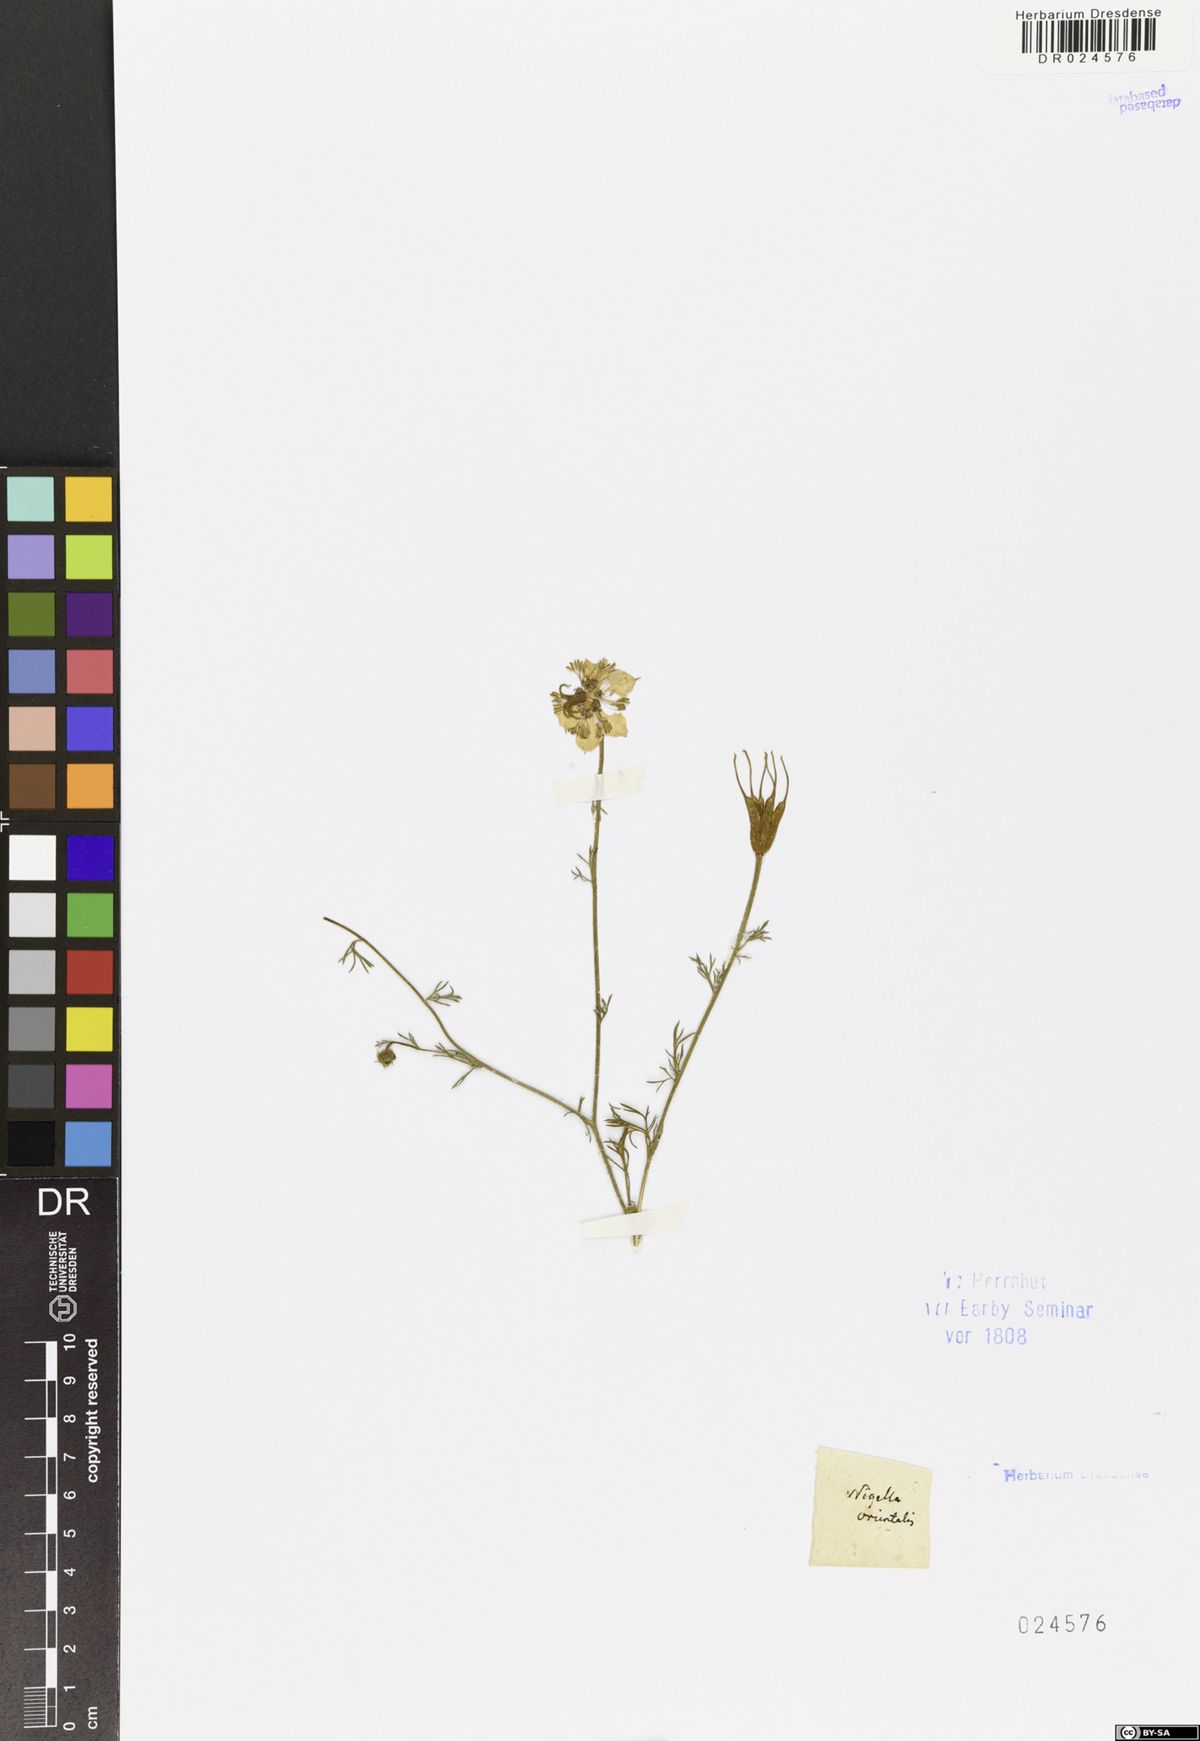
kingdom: Plantae
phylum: Tracheophyta
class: Magnoliopsida
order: Ranunculales
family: Ranunculaceae
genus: Nigella
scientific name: Nigella orientalis
